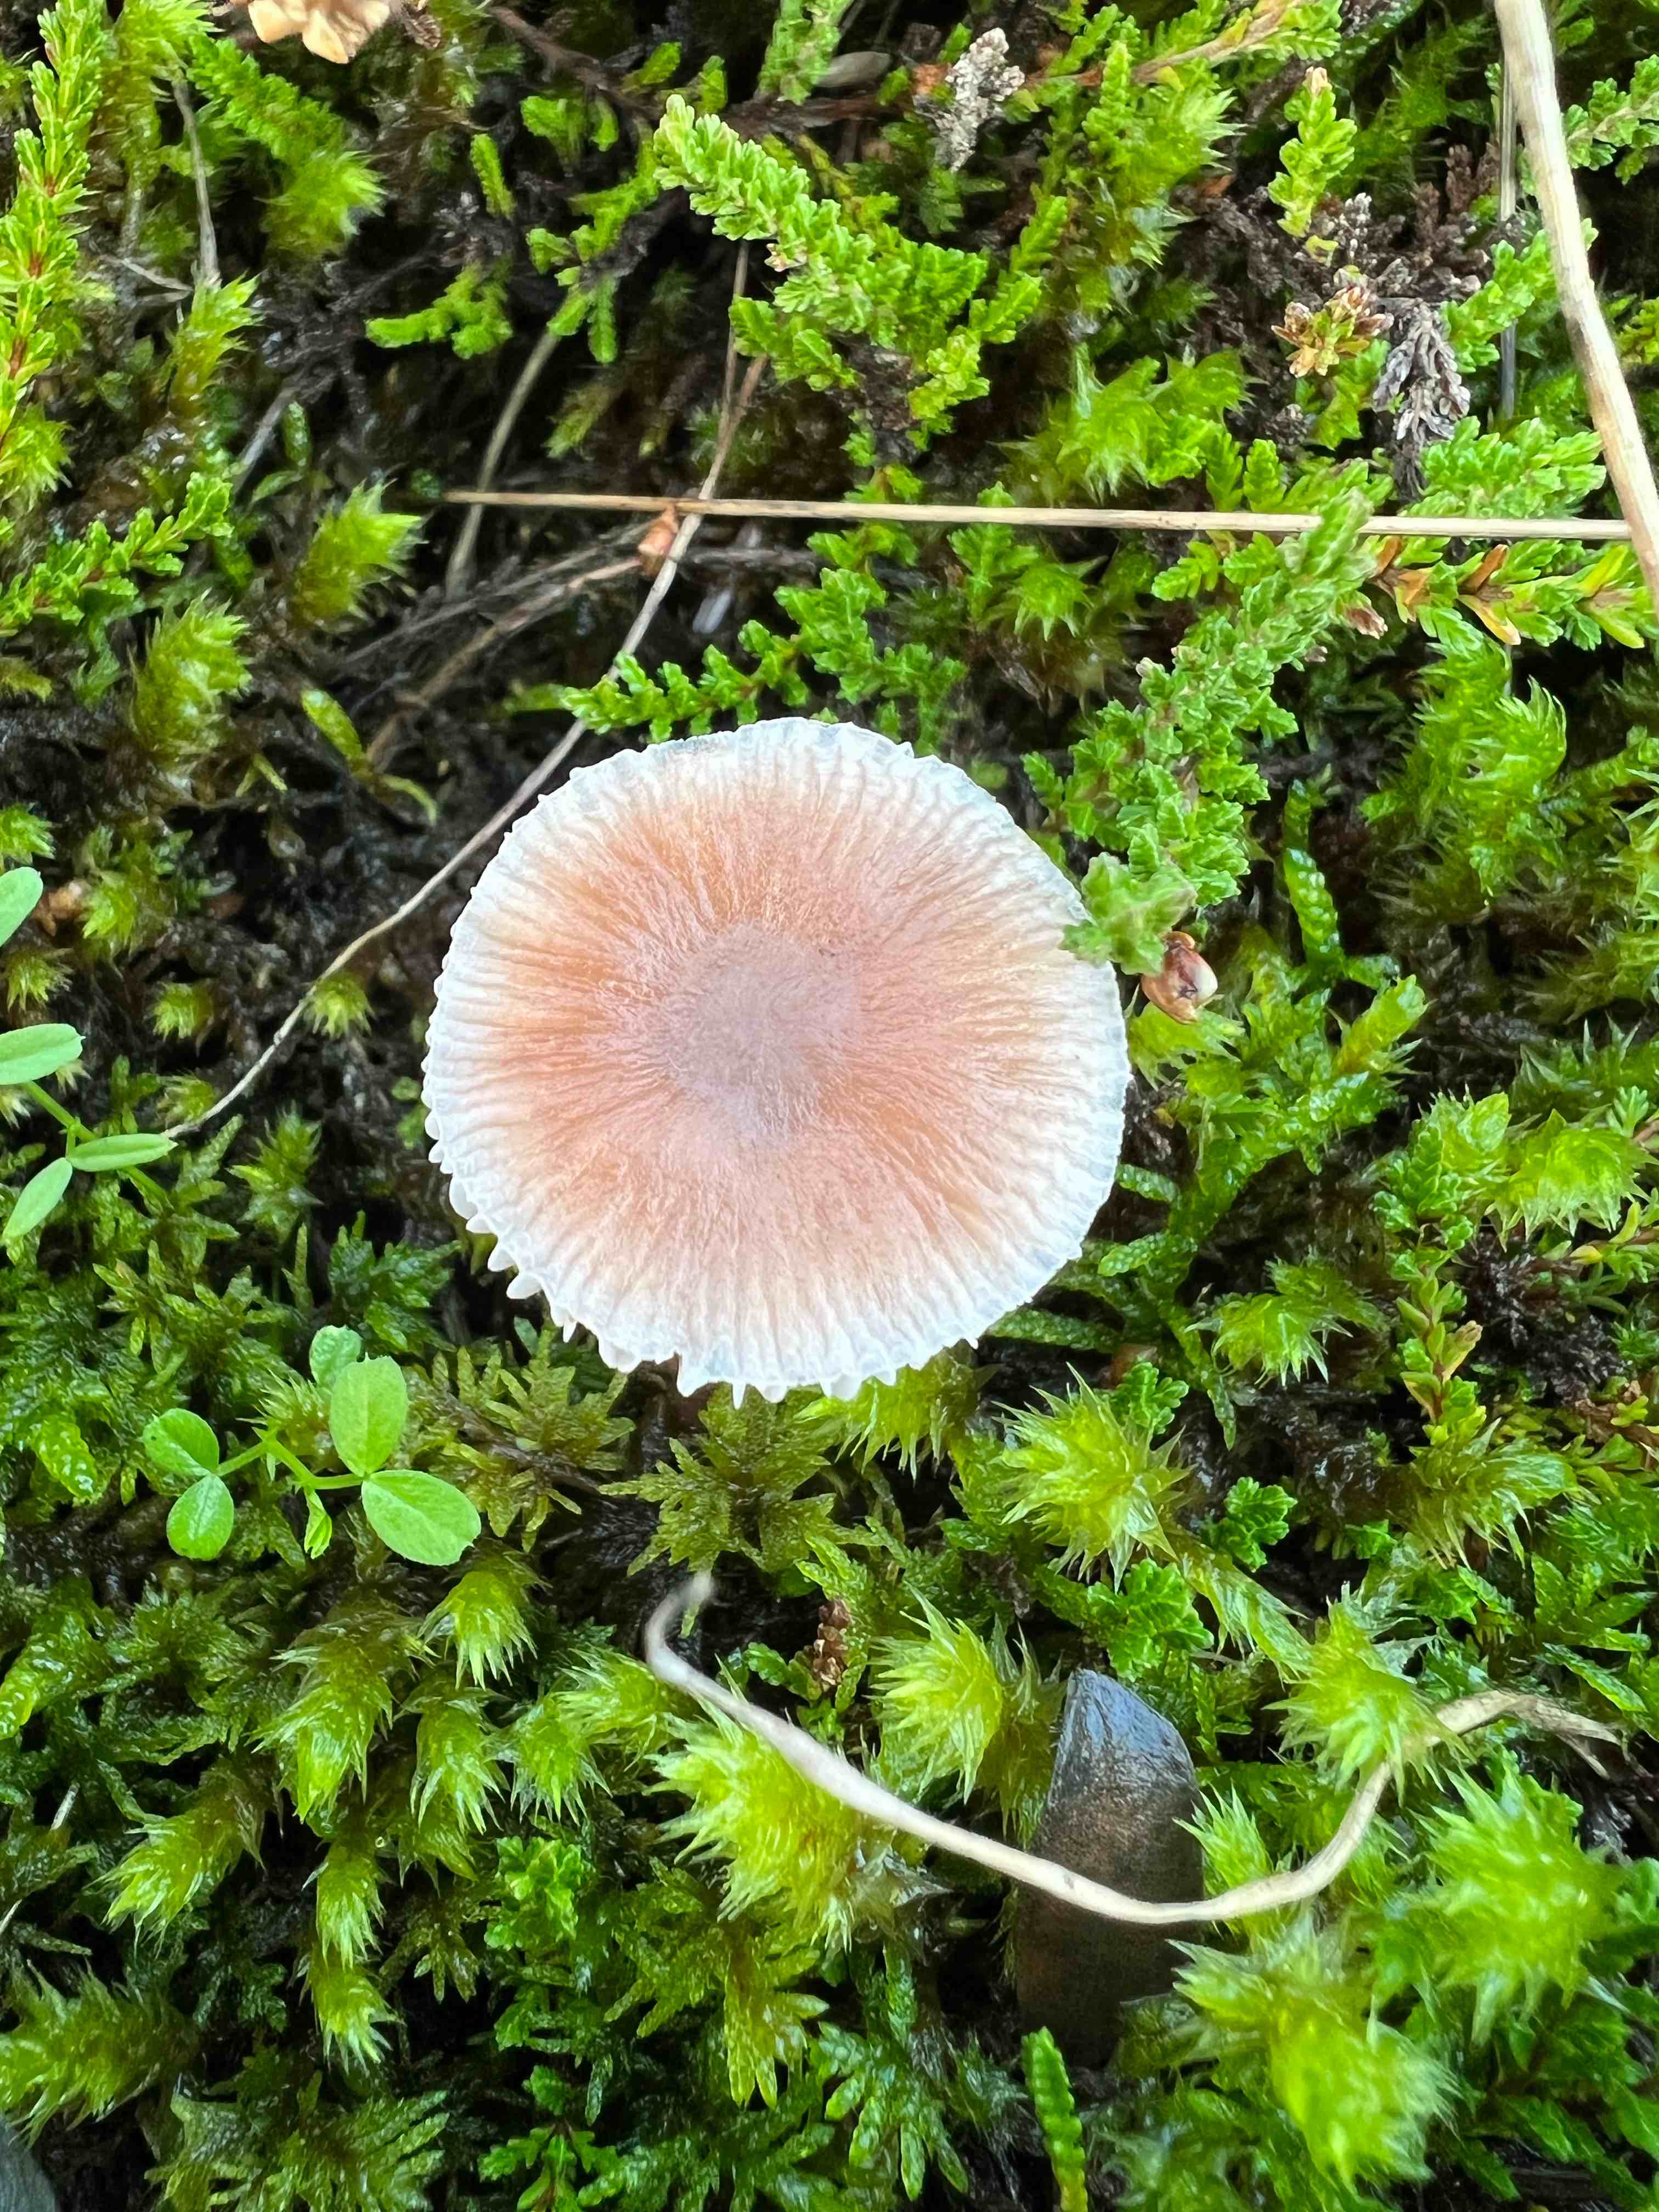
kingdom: Fungi
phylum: Basidiomycota
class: Agaricomycetes
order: Agaricales
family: Mycenaceae
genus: Mycena
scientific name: Mycena luteovariegata
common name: lillagul huesvamp
